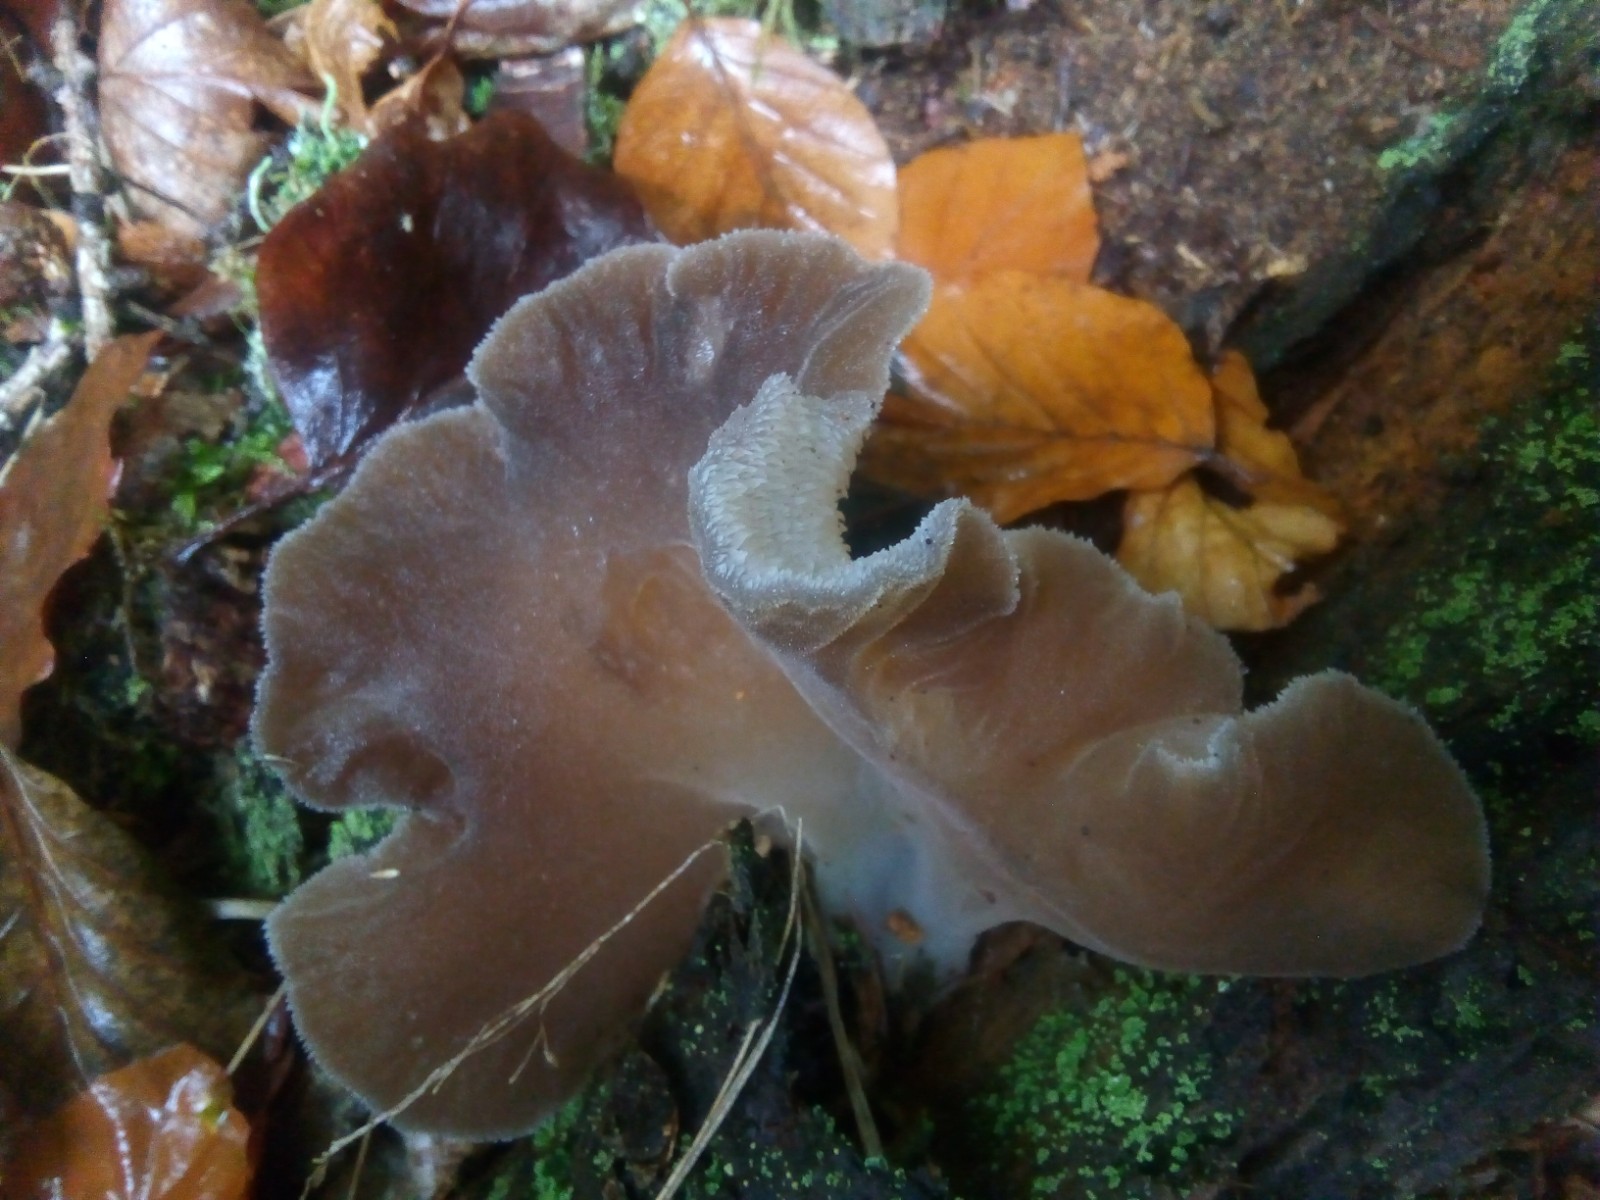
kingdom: Fungi
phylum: Basidiomycota
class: Agaricomycetes
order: Auriculariales
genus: Pseudohydnum
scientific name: Pseudohydnum gelatinosum
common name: bævretand
